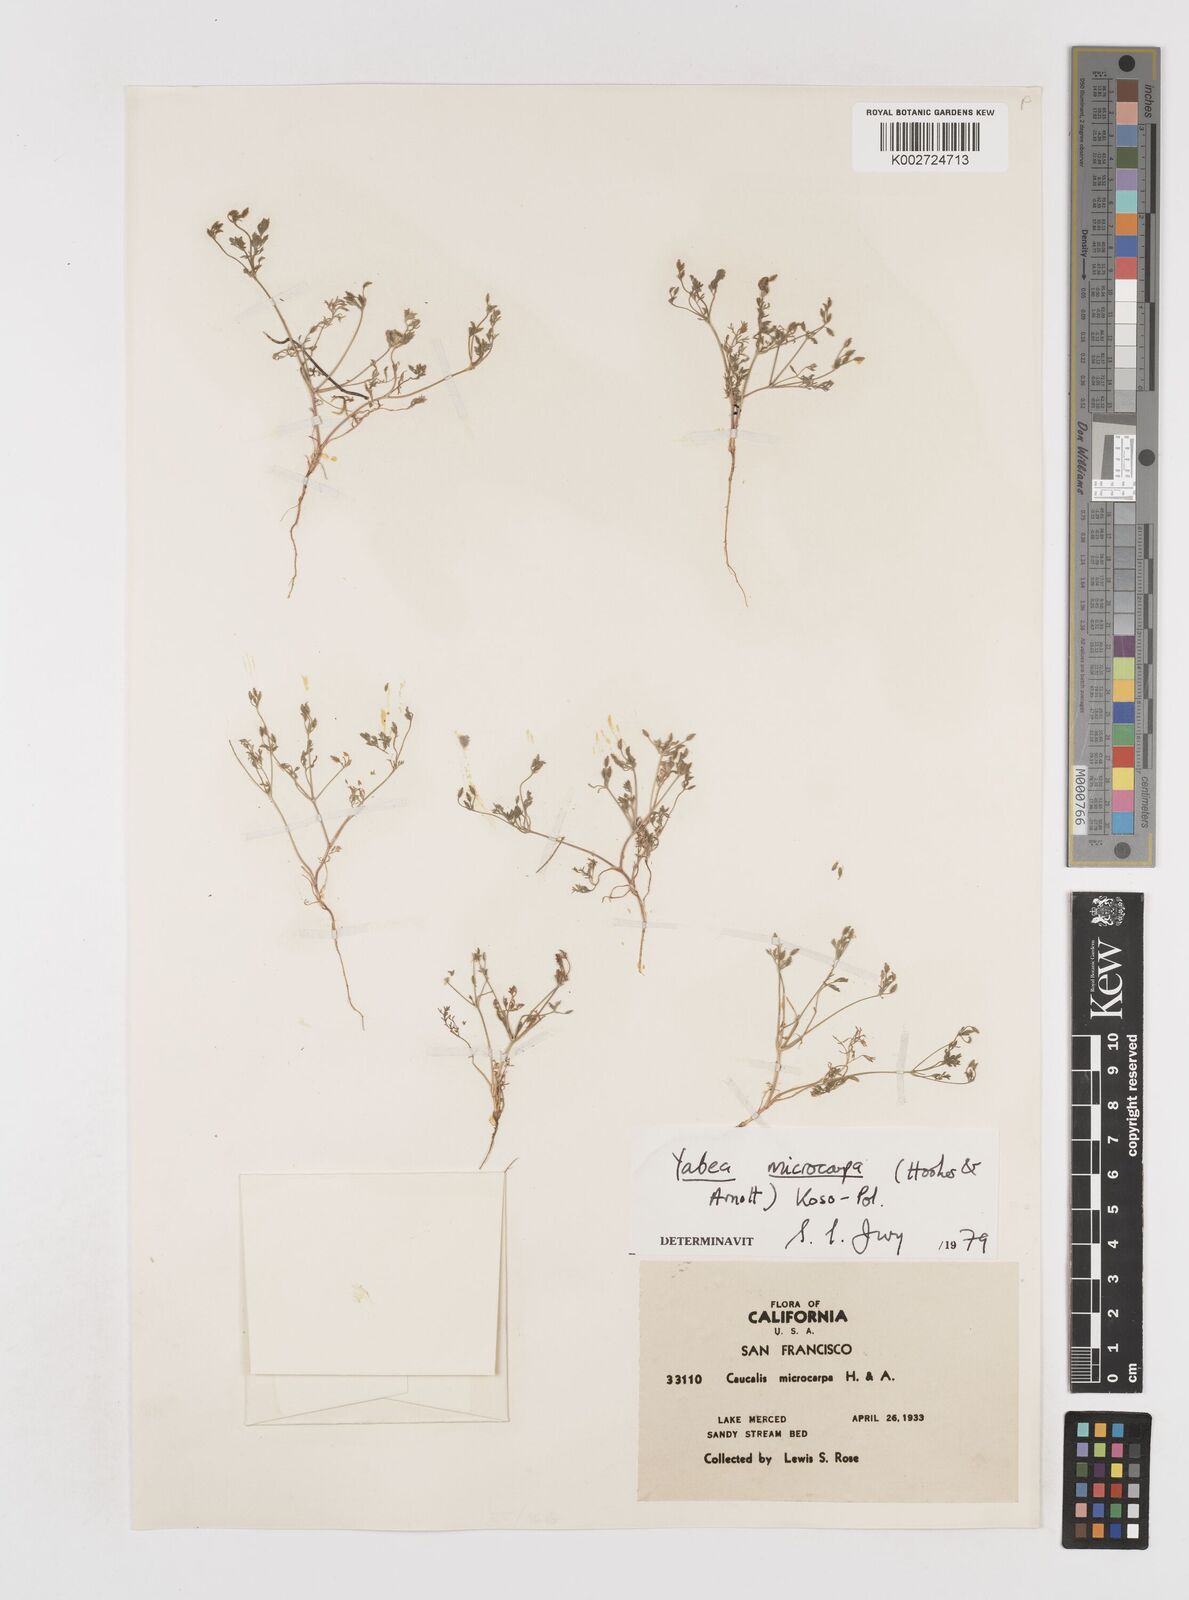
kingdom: Plantae
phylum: Tracheophyta
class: Magnoliopsida
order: Apiales
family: Apiaceae
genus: Yabea
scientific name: Yabea microcarpa
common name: False carrot
